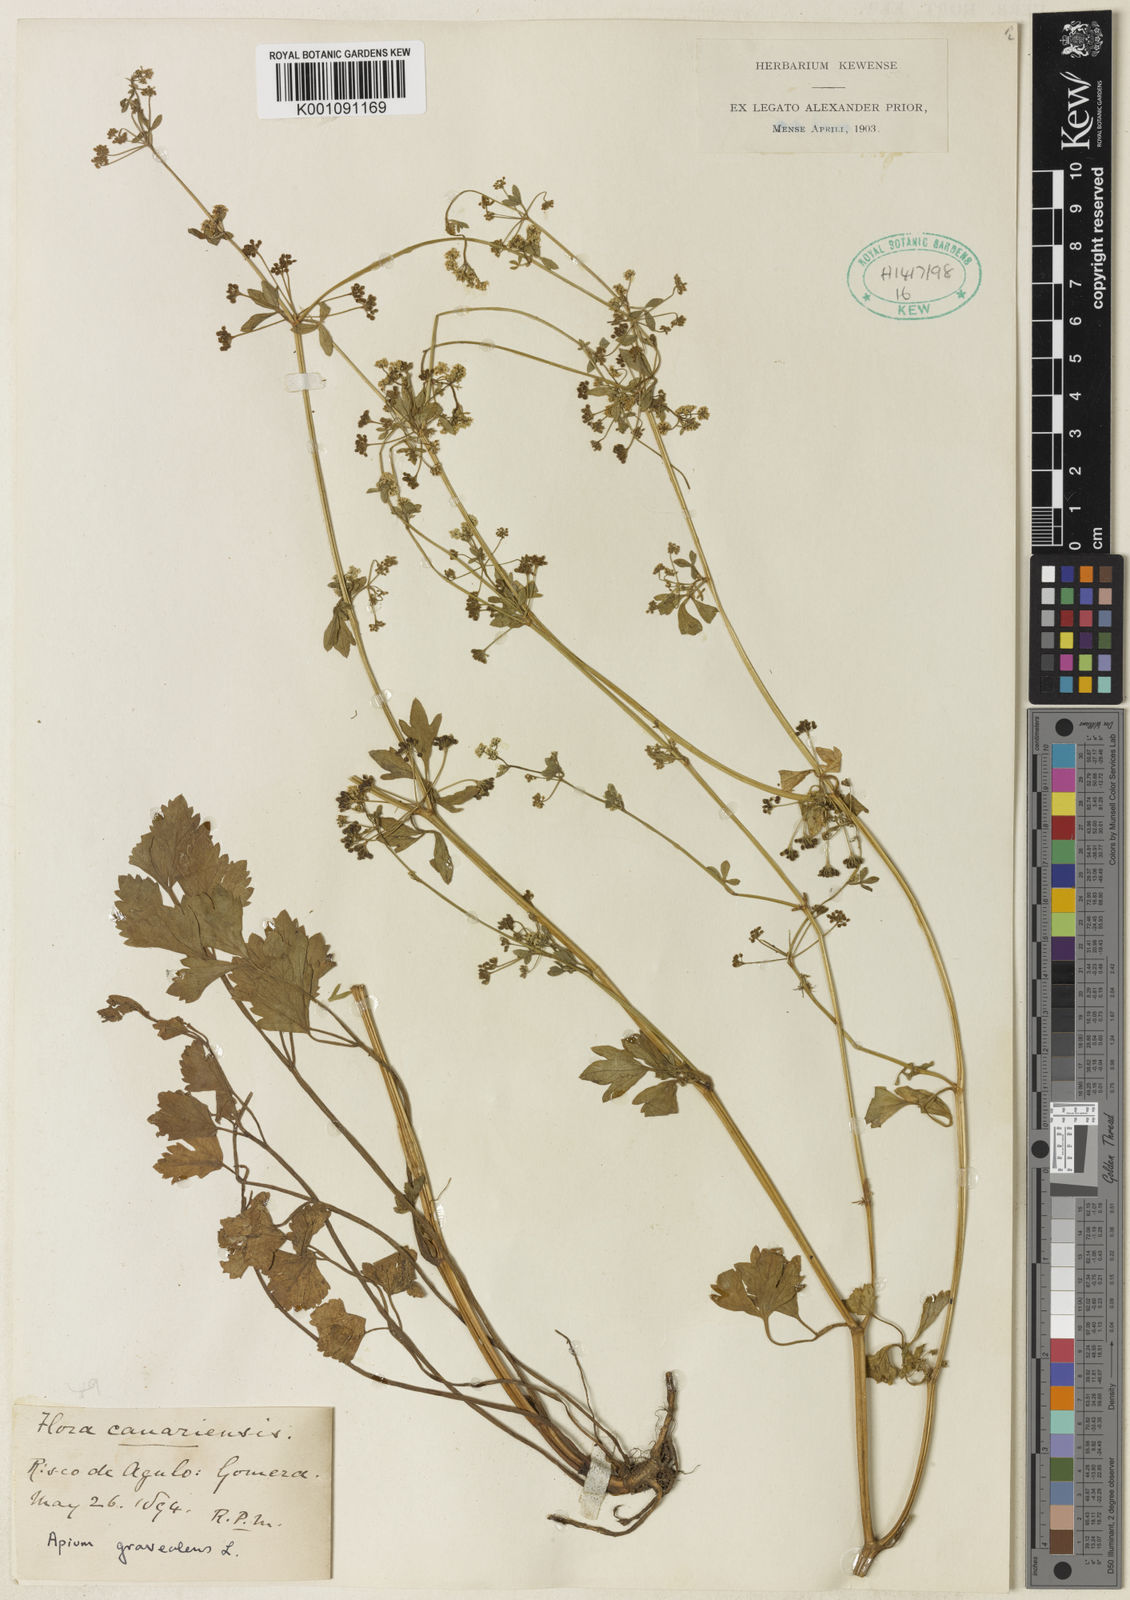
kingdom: Plantae
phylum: Tracheophyta
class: Magnoliopsida
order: Apiales
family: Apiaceae
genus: Apium
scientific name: Apium graveolens
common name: Wild celery
